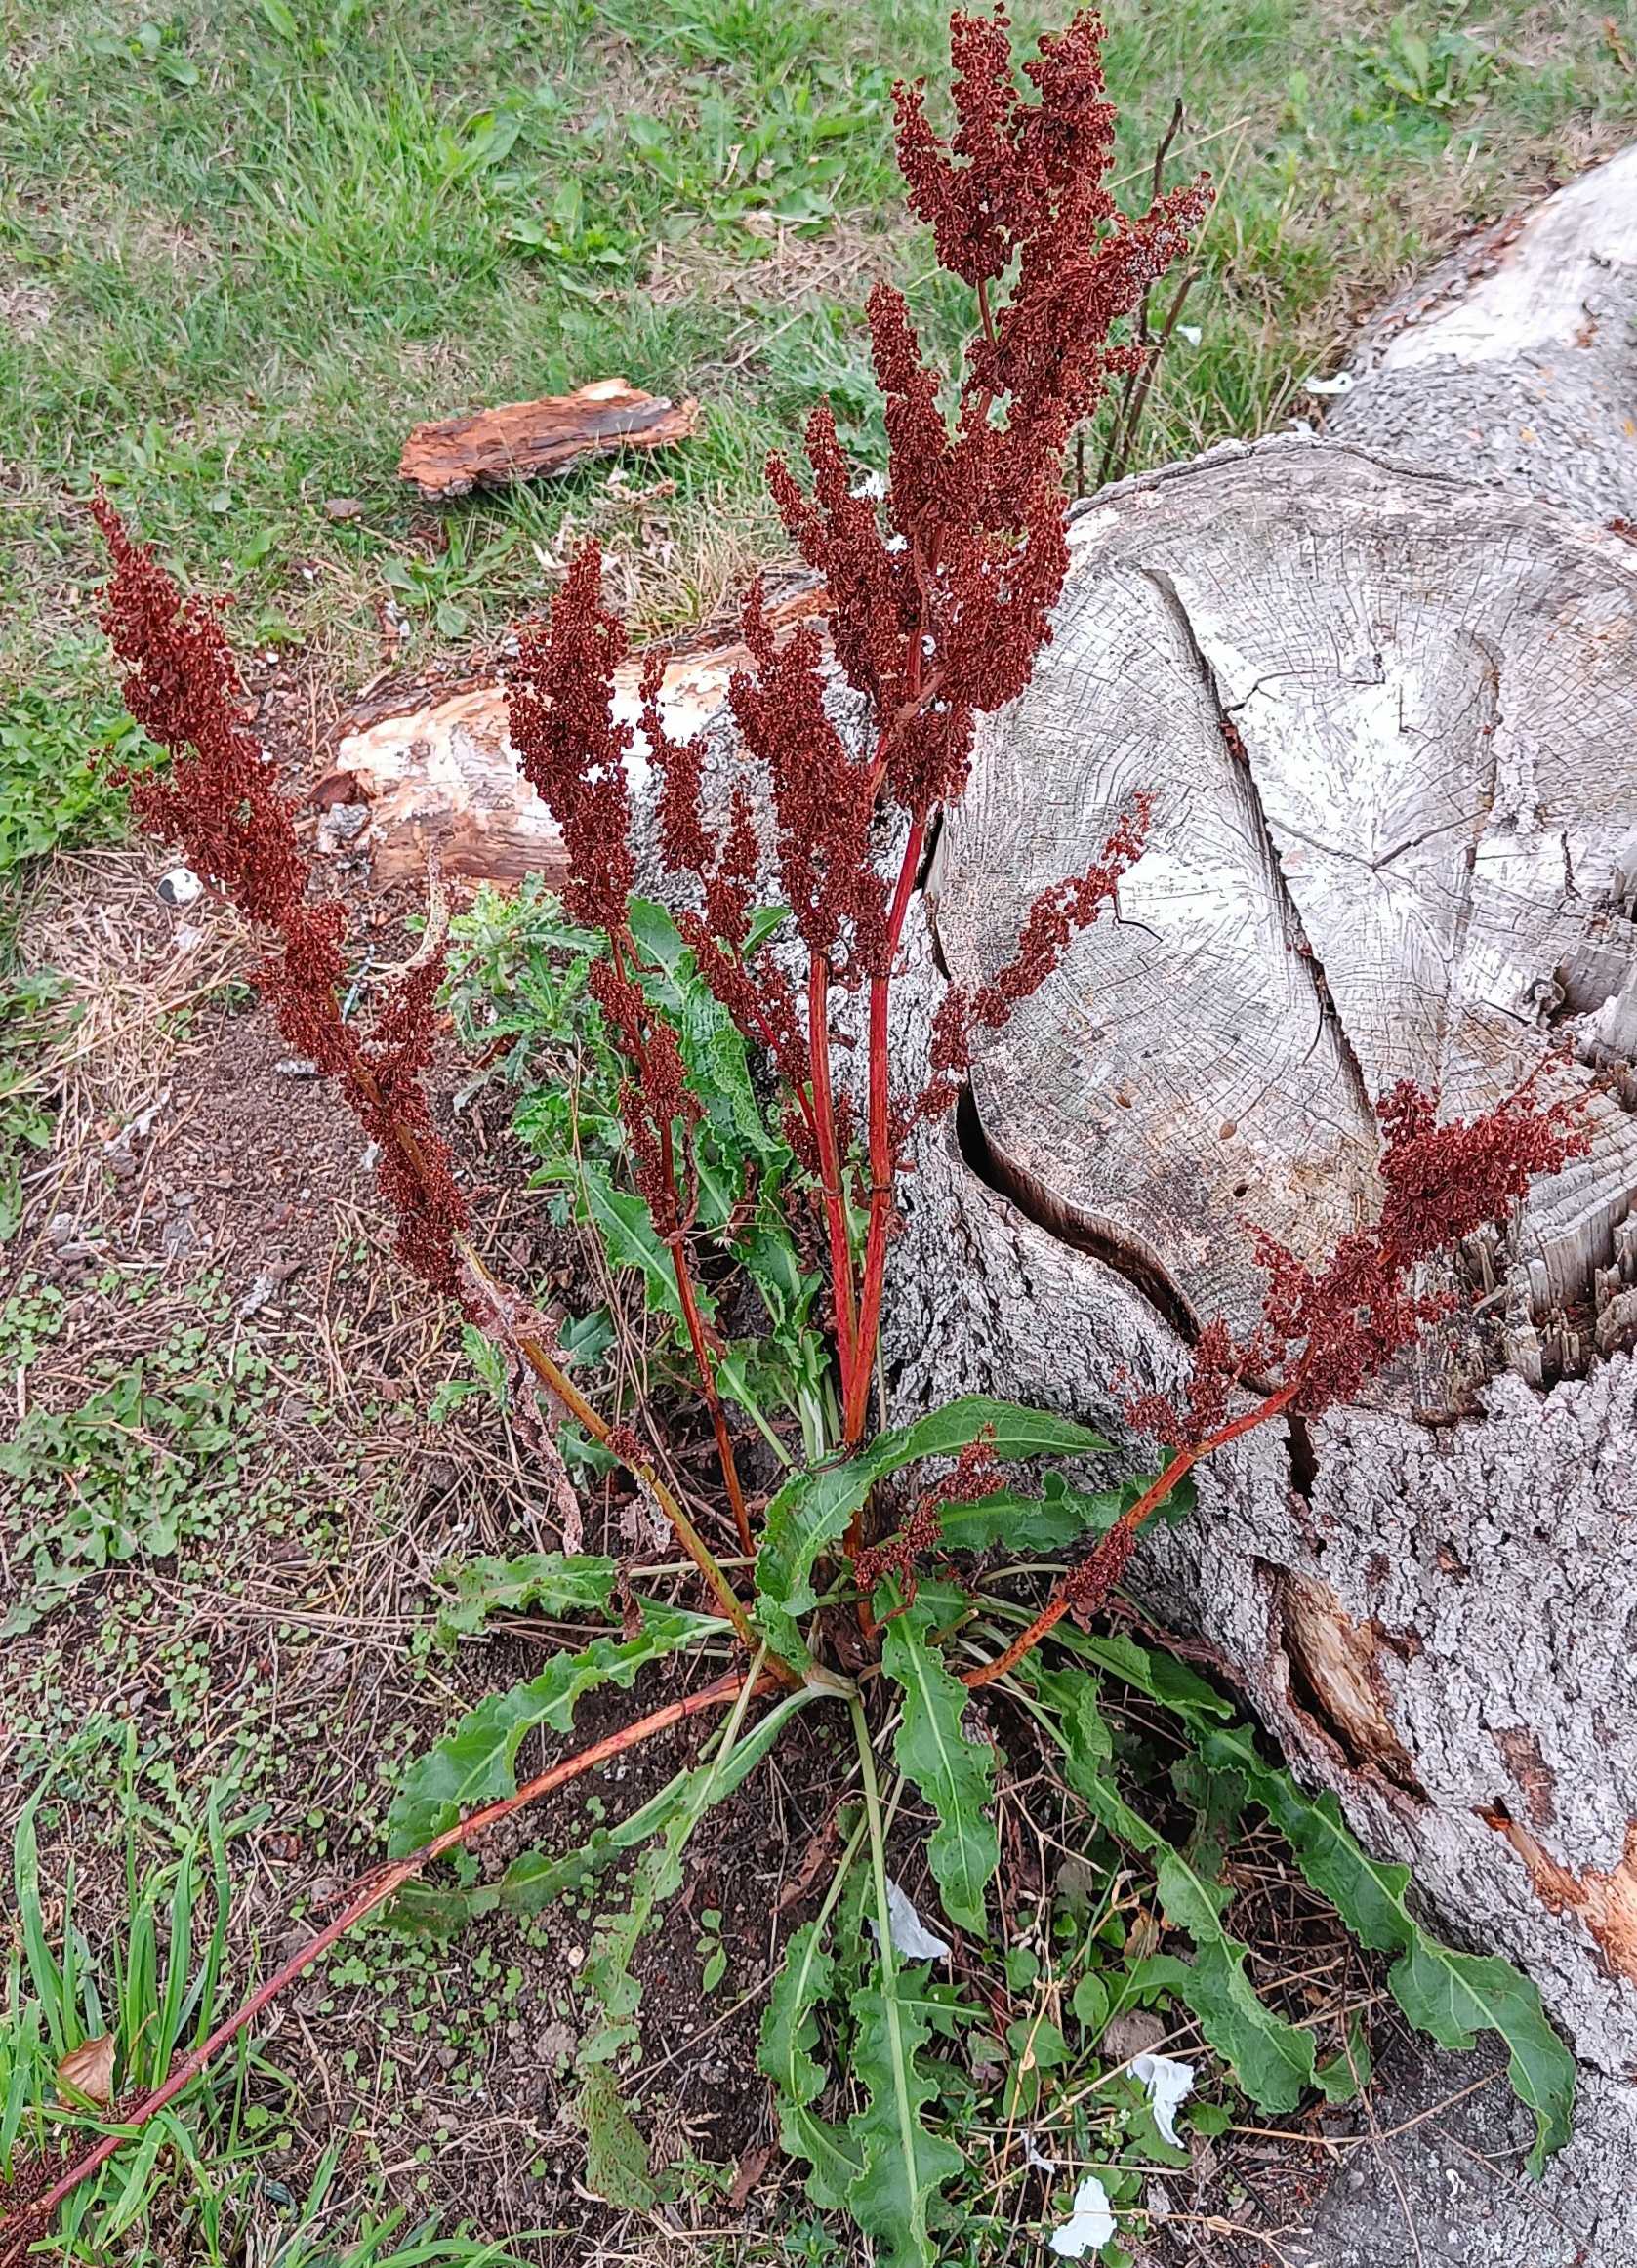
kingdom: Plantae
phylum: Tracheophyta
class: Magnoliopsida
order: Caryophyllales
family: Polygonaceae
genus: Rumex
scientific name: Rumex crispus
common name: Kruset skræppe
